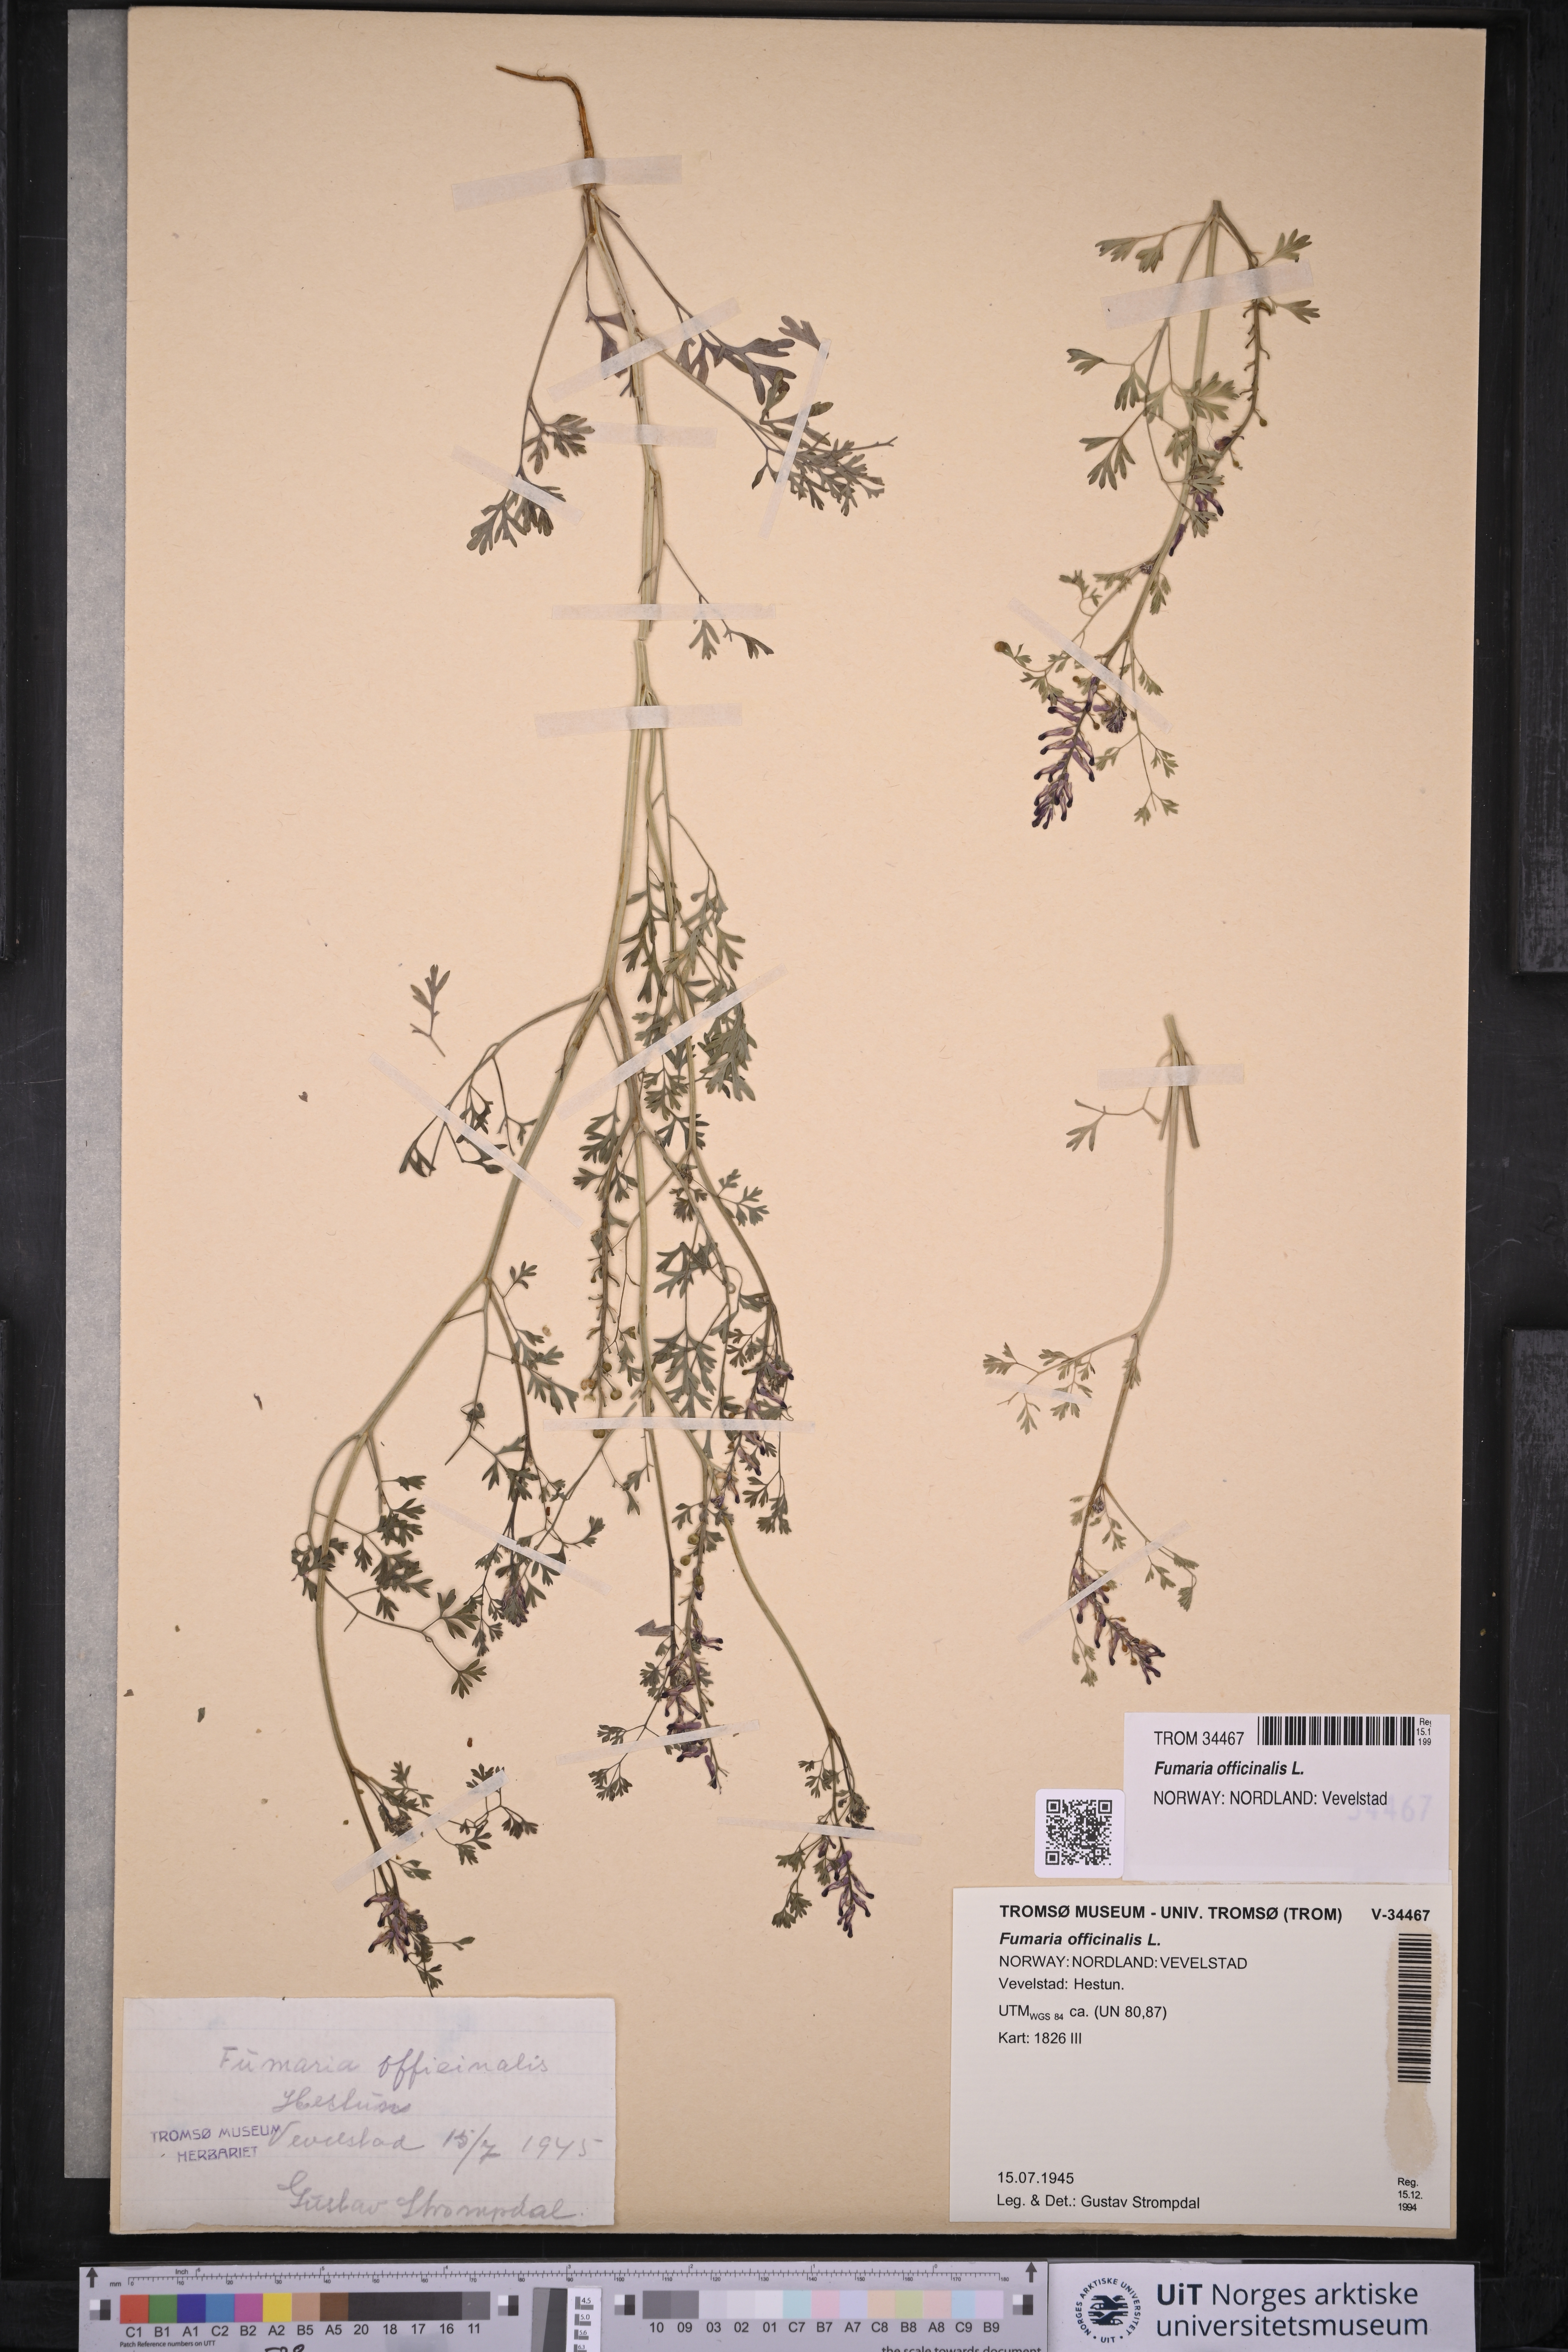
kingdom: Plantae
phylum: Tracheophyta
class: Magnoliopsida
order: Ranunculales
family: Papaveraceae
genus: Fumaria
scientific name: Fumaria officinalis
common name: Common fumitory
